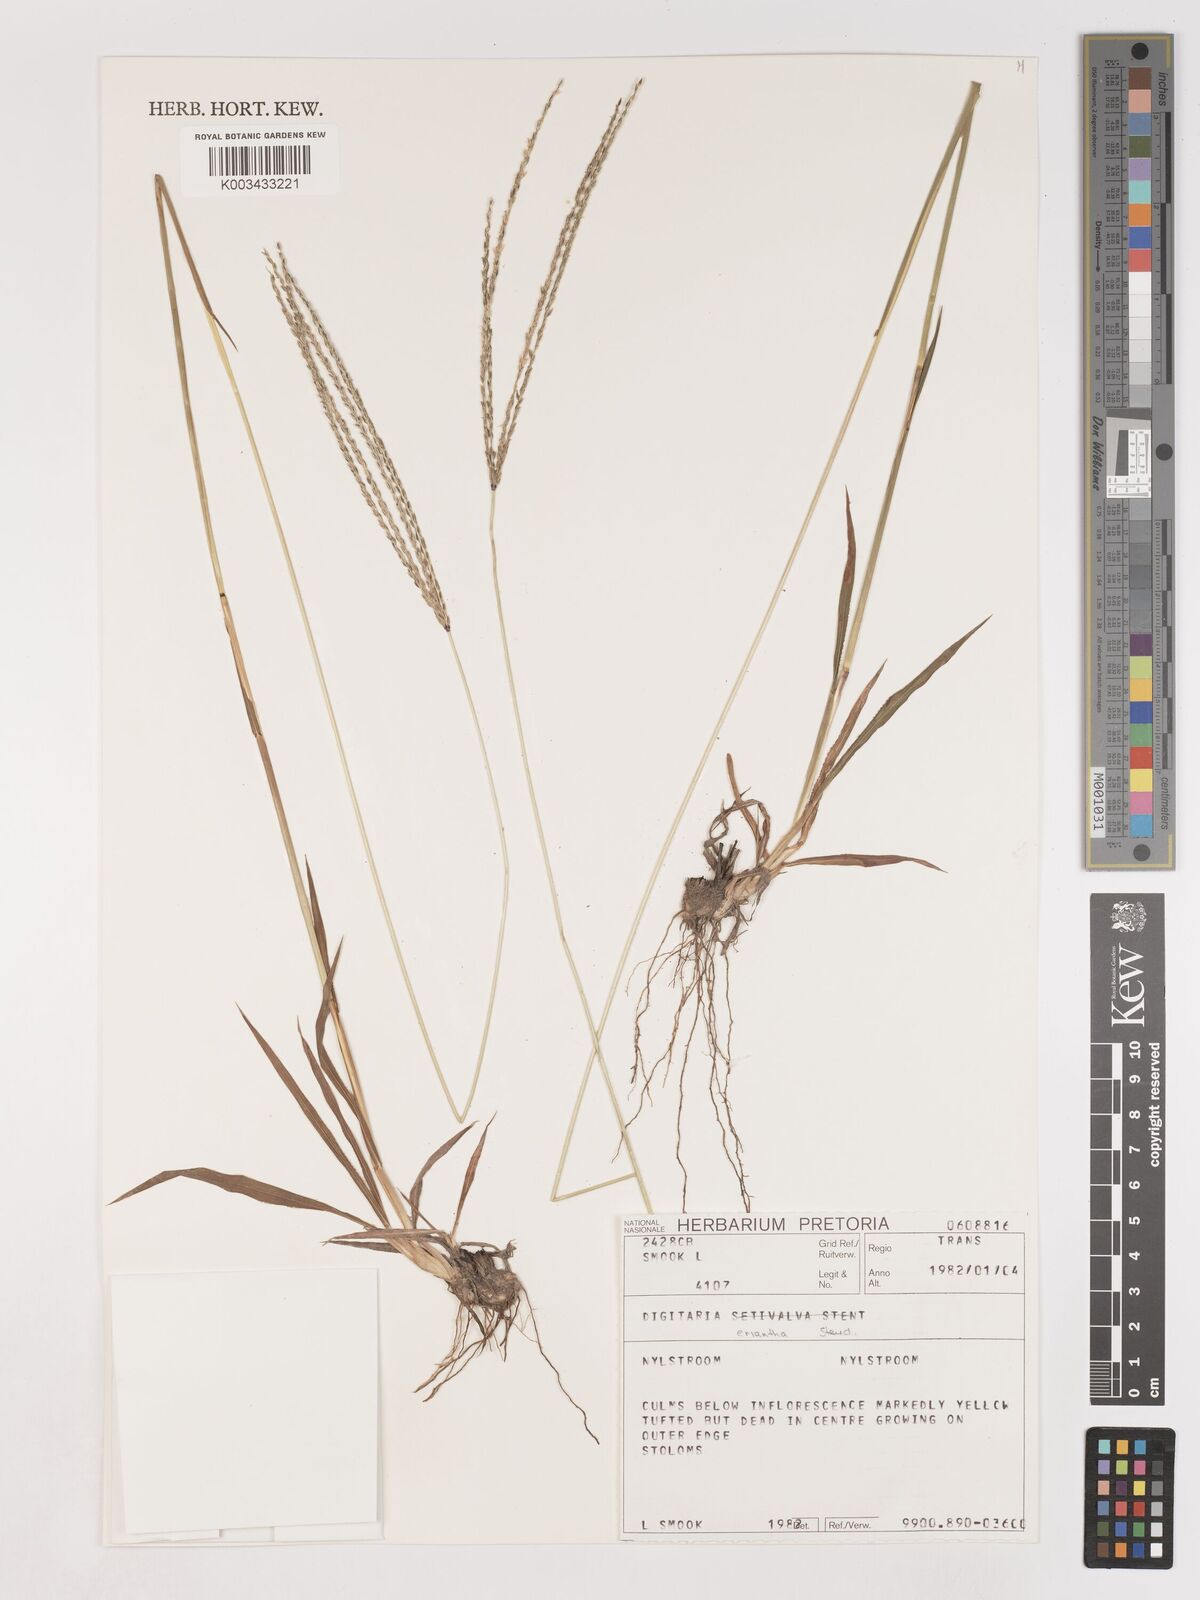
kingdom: Plantae
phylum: Tracheophyta
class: Liliopsida
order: Poales
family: Poaceae
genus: Digitaria
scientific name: Digitaria eriantha
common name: Digitgrass
